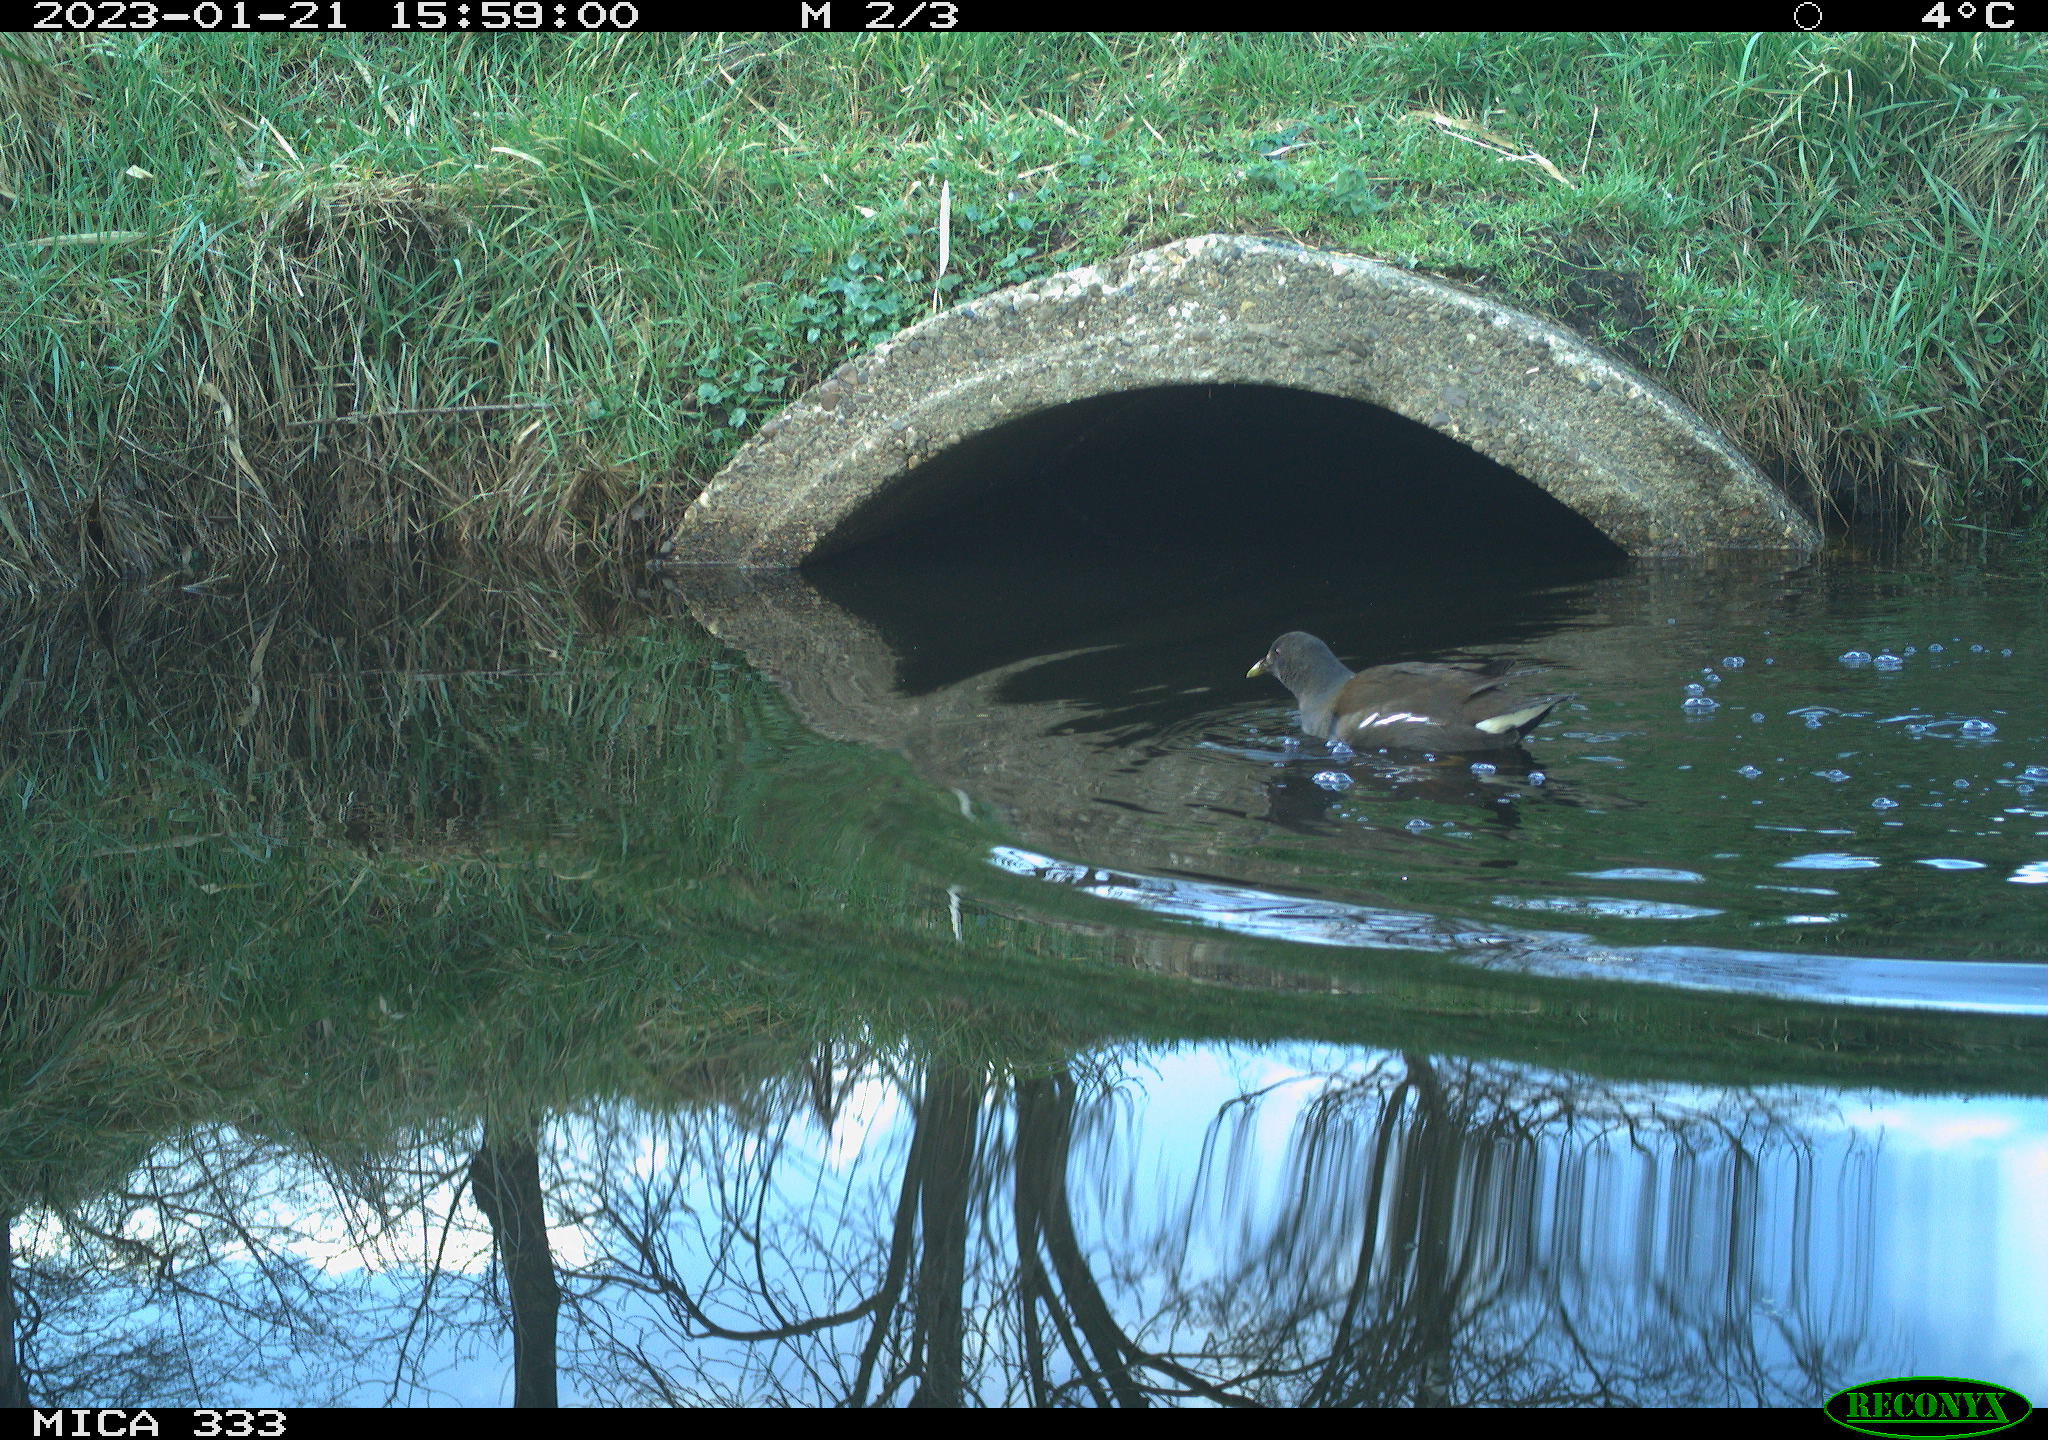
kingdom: Animalia
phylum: Chordata
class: Aves
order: Gruiformes
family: Rallidae
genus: Gallinula
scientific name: Gallinula chloropus
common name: Common moorhen
